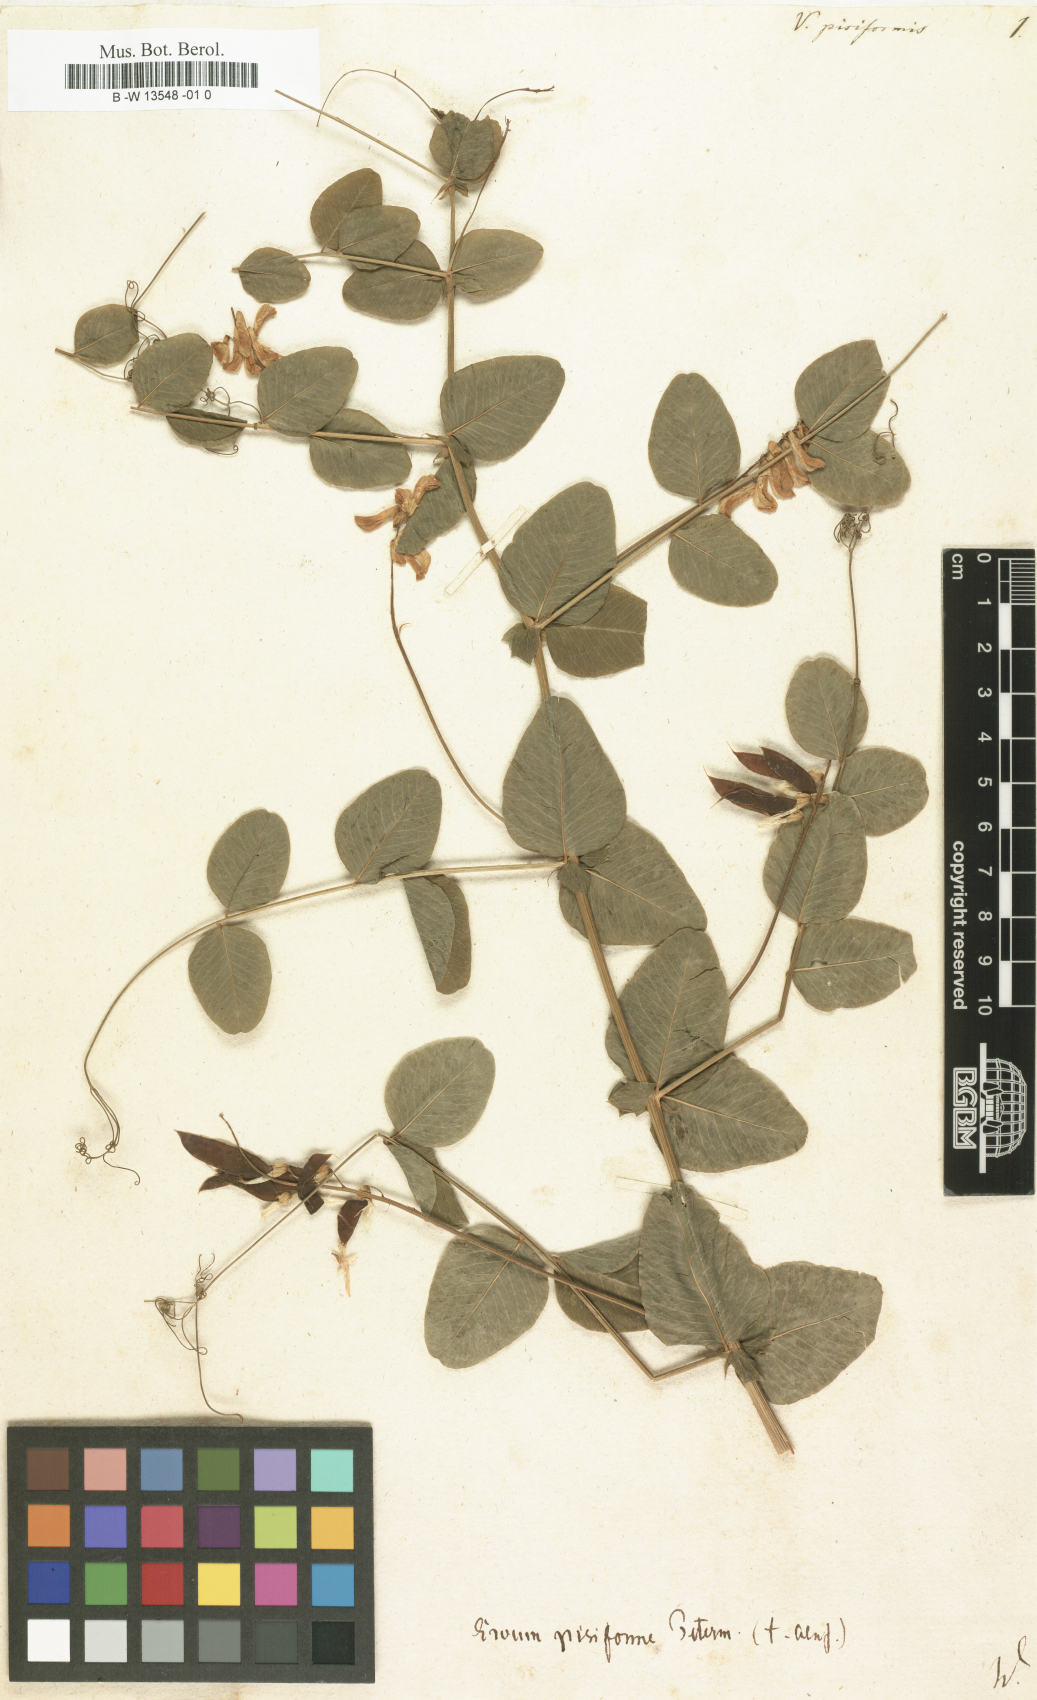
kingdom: Plantae
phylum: Tracheophyta
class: Magnoliopsida
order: Fabales
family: Fabaceae
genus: Vicia
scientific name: Vicia pisiformis
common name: Pale-flower vetch
